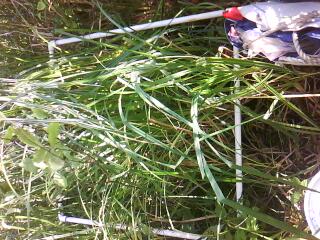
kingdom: Plantae
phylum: Tracheophyta
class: Liliopsida
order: Poales
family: Poaceae
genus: Leersia
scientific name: Leersia virginica
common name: White cutgrass
